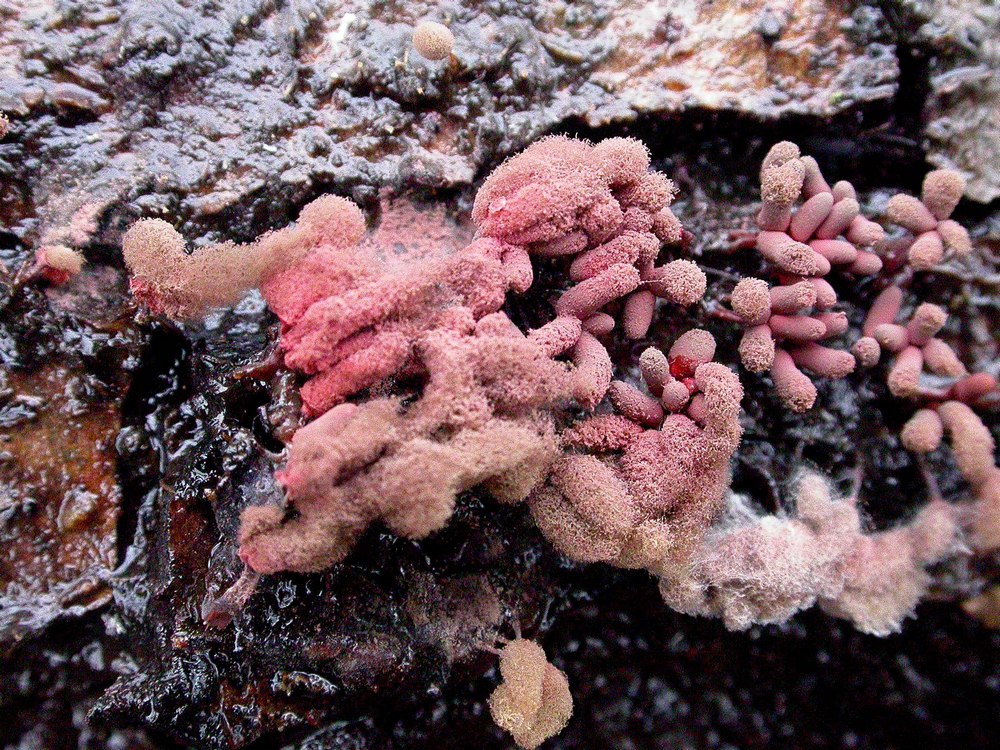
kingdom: Protozoa
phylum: Mycetozoa
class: Myxomycetes
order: Trichiales
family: Arcyriaceae
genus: Arcyria
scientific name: Arcyria incarnata
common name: rosa skålsvøb
